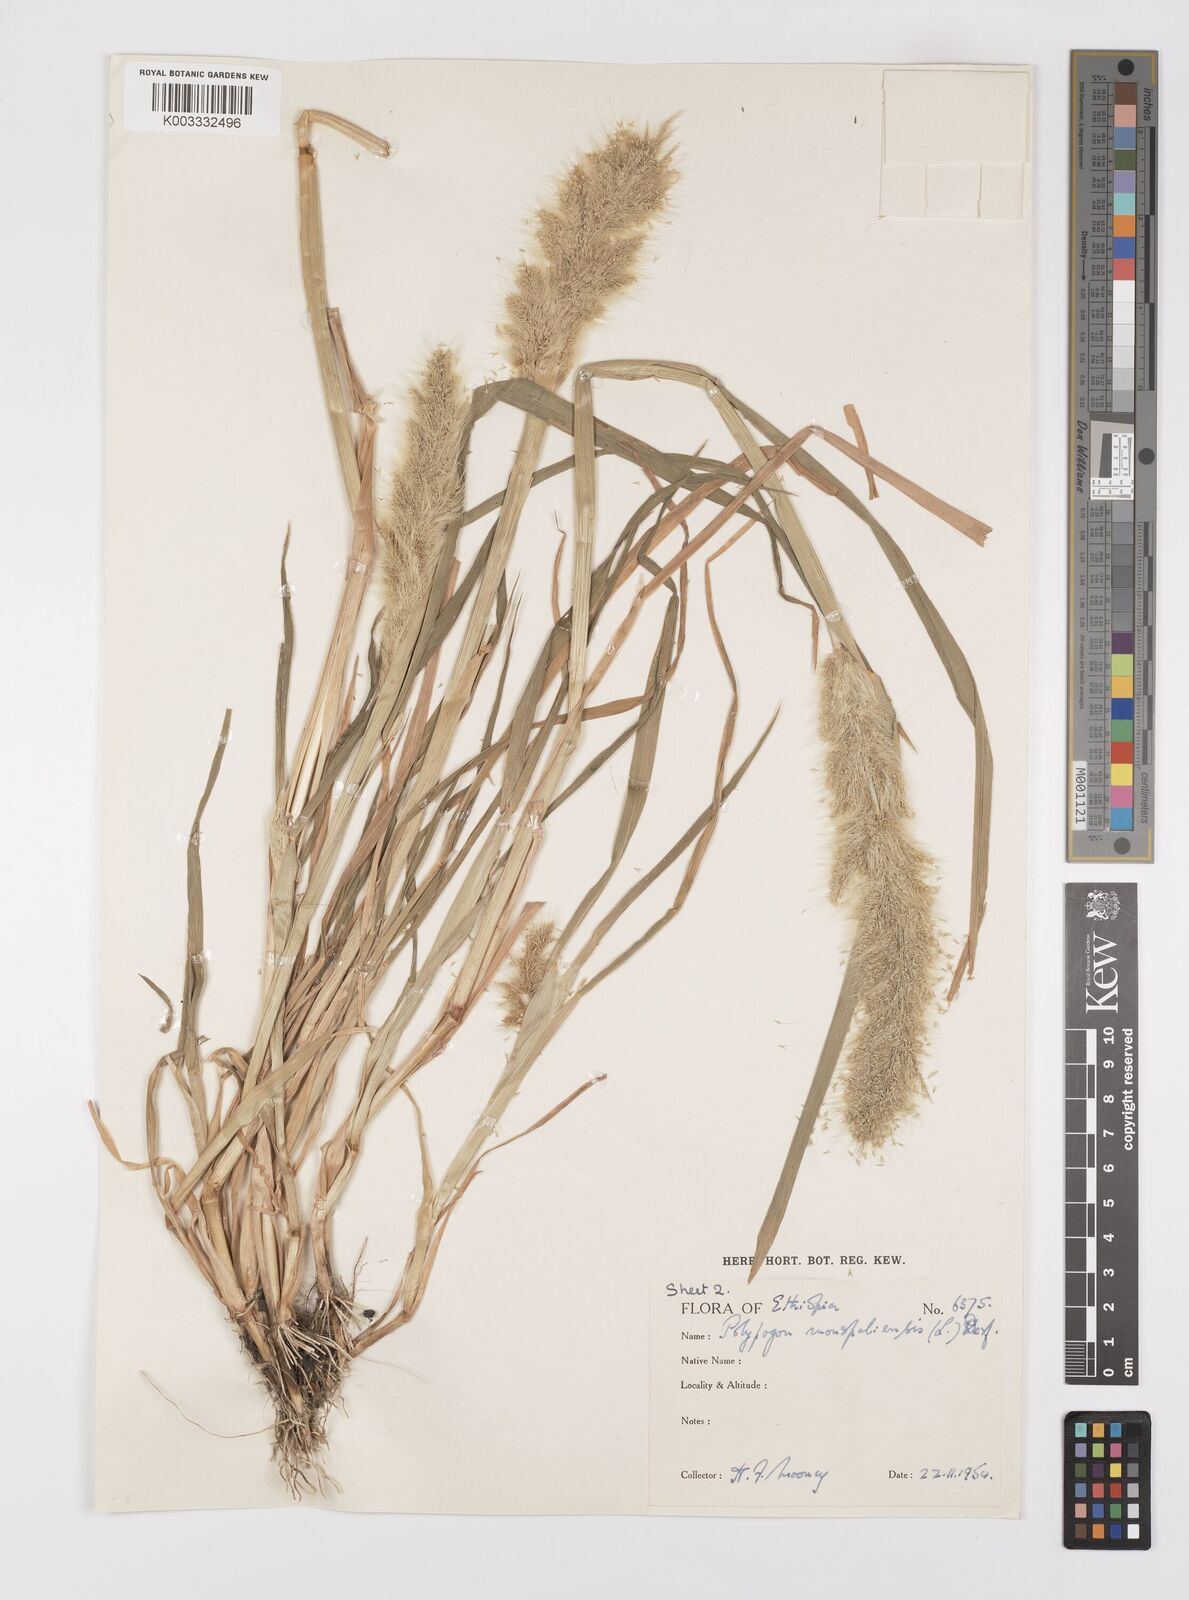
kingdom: Plantae
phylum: Tracheophyta
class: Liliopsida
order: Poales
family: Poaceae
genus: Polypogon
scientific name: Polypogon monspeliensis
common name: Annual rabbitsfoot grass
